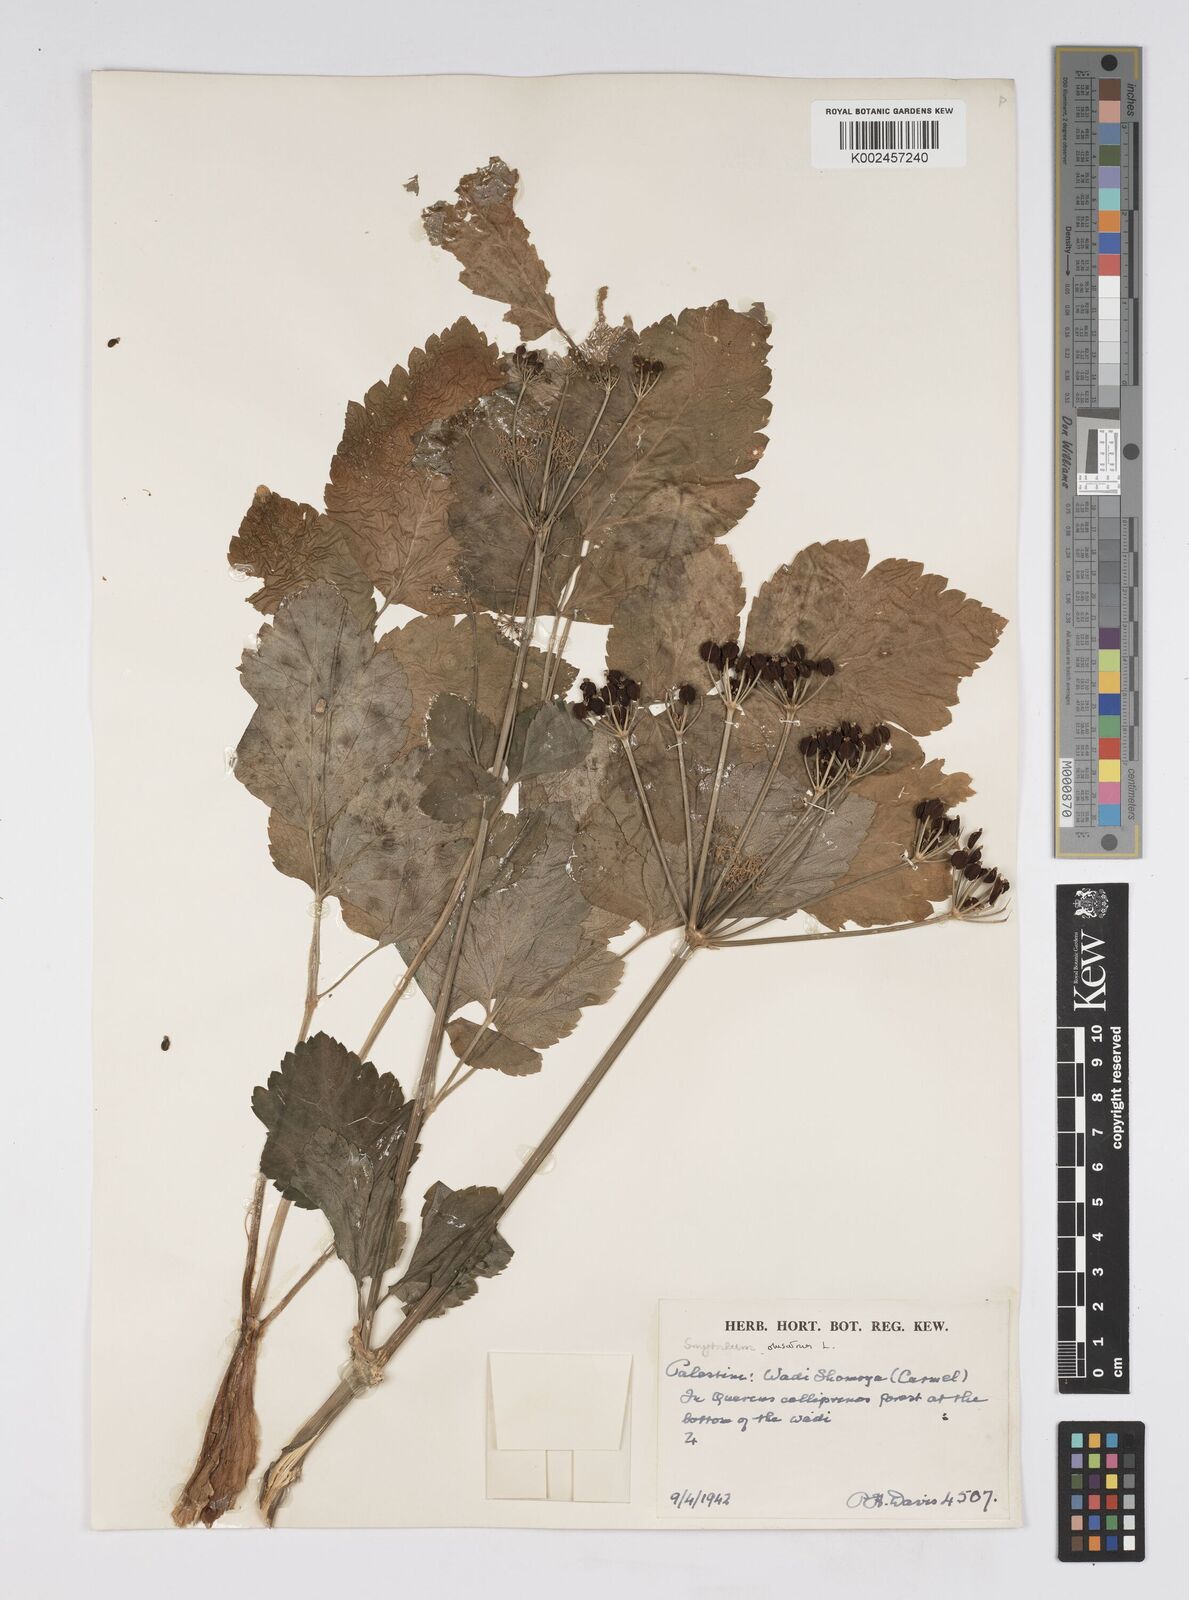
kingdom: Plantae
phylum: Tracheophyta
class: Magnoliopsida
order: Apiales
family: Apiaceae
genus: Smyrnium
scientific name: Smyrnium olusatrum
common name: Alexanders
